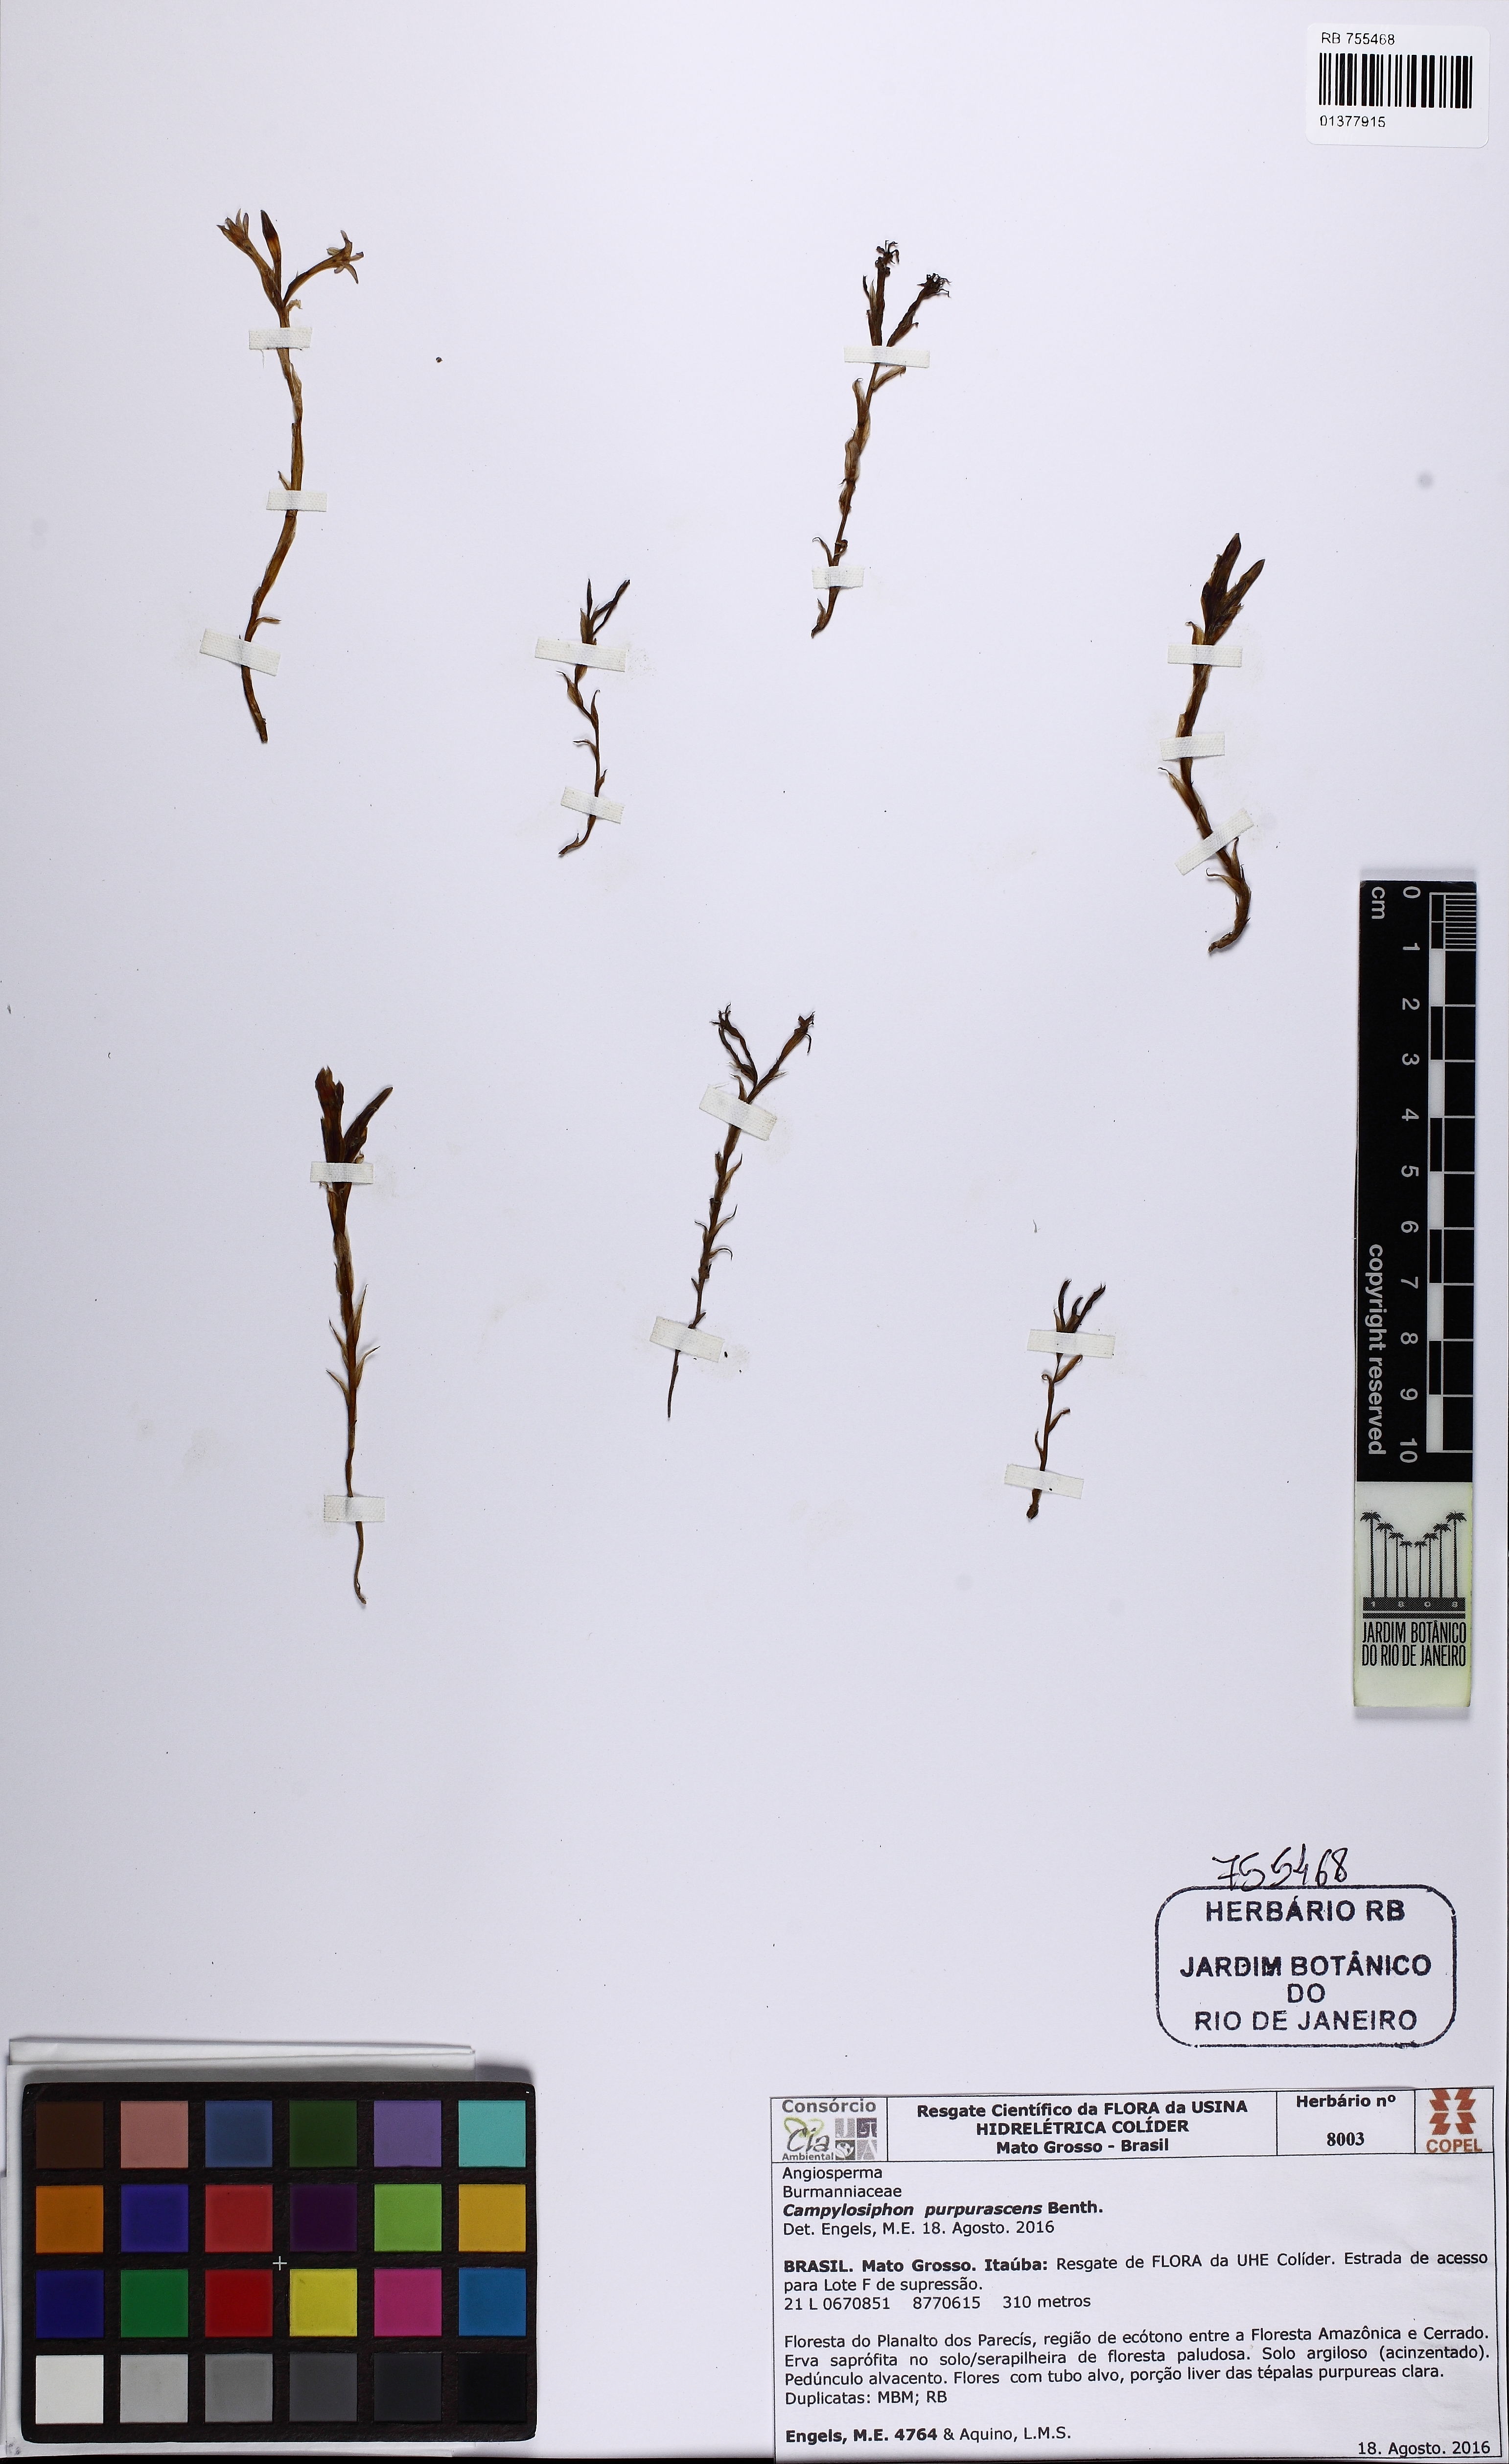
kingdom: Plantae
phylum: Tracheophyta
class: Liliopsida
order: Dioscoreales
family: Burmanniaceae
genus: Campylosiphon
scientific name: Campylosiphon purpurascens
